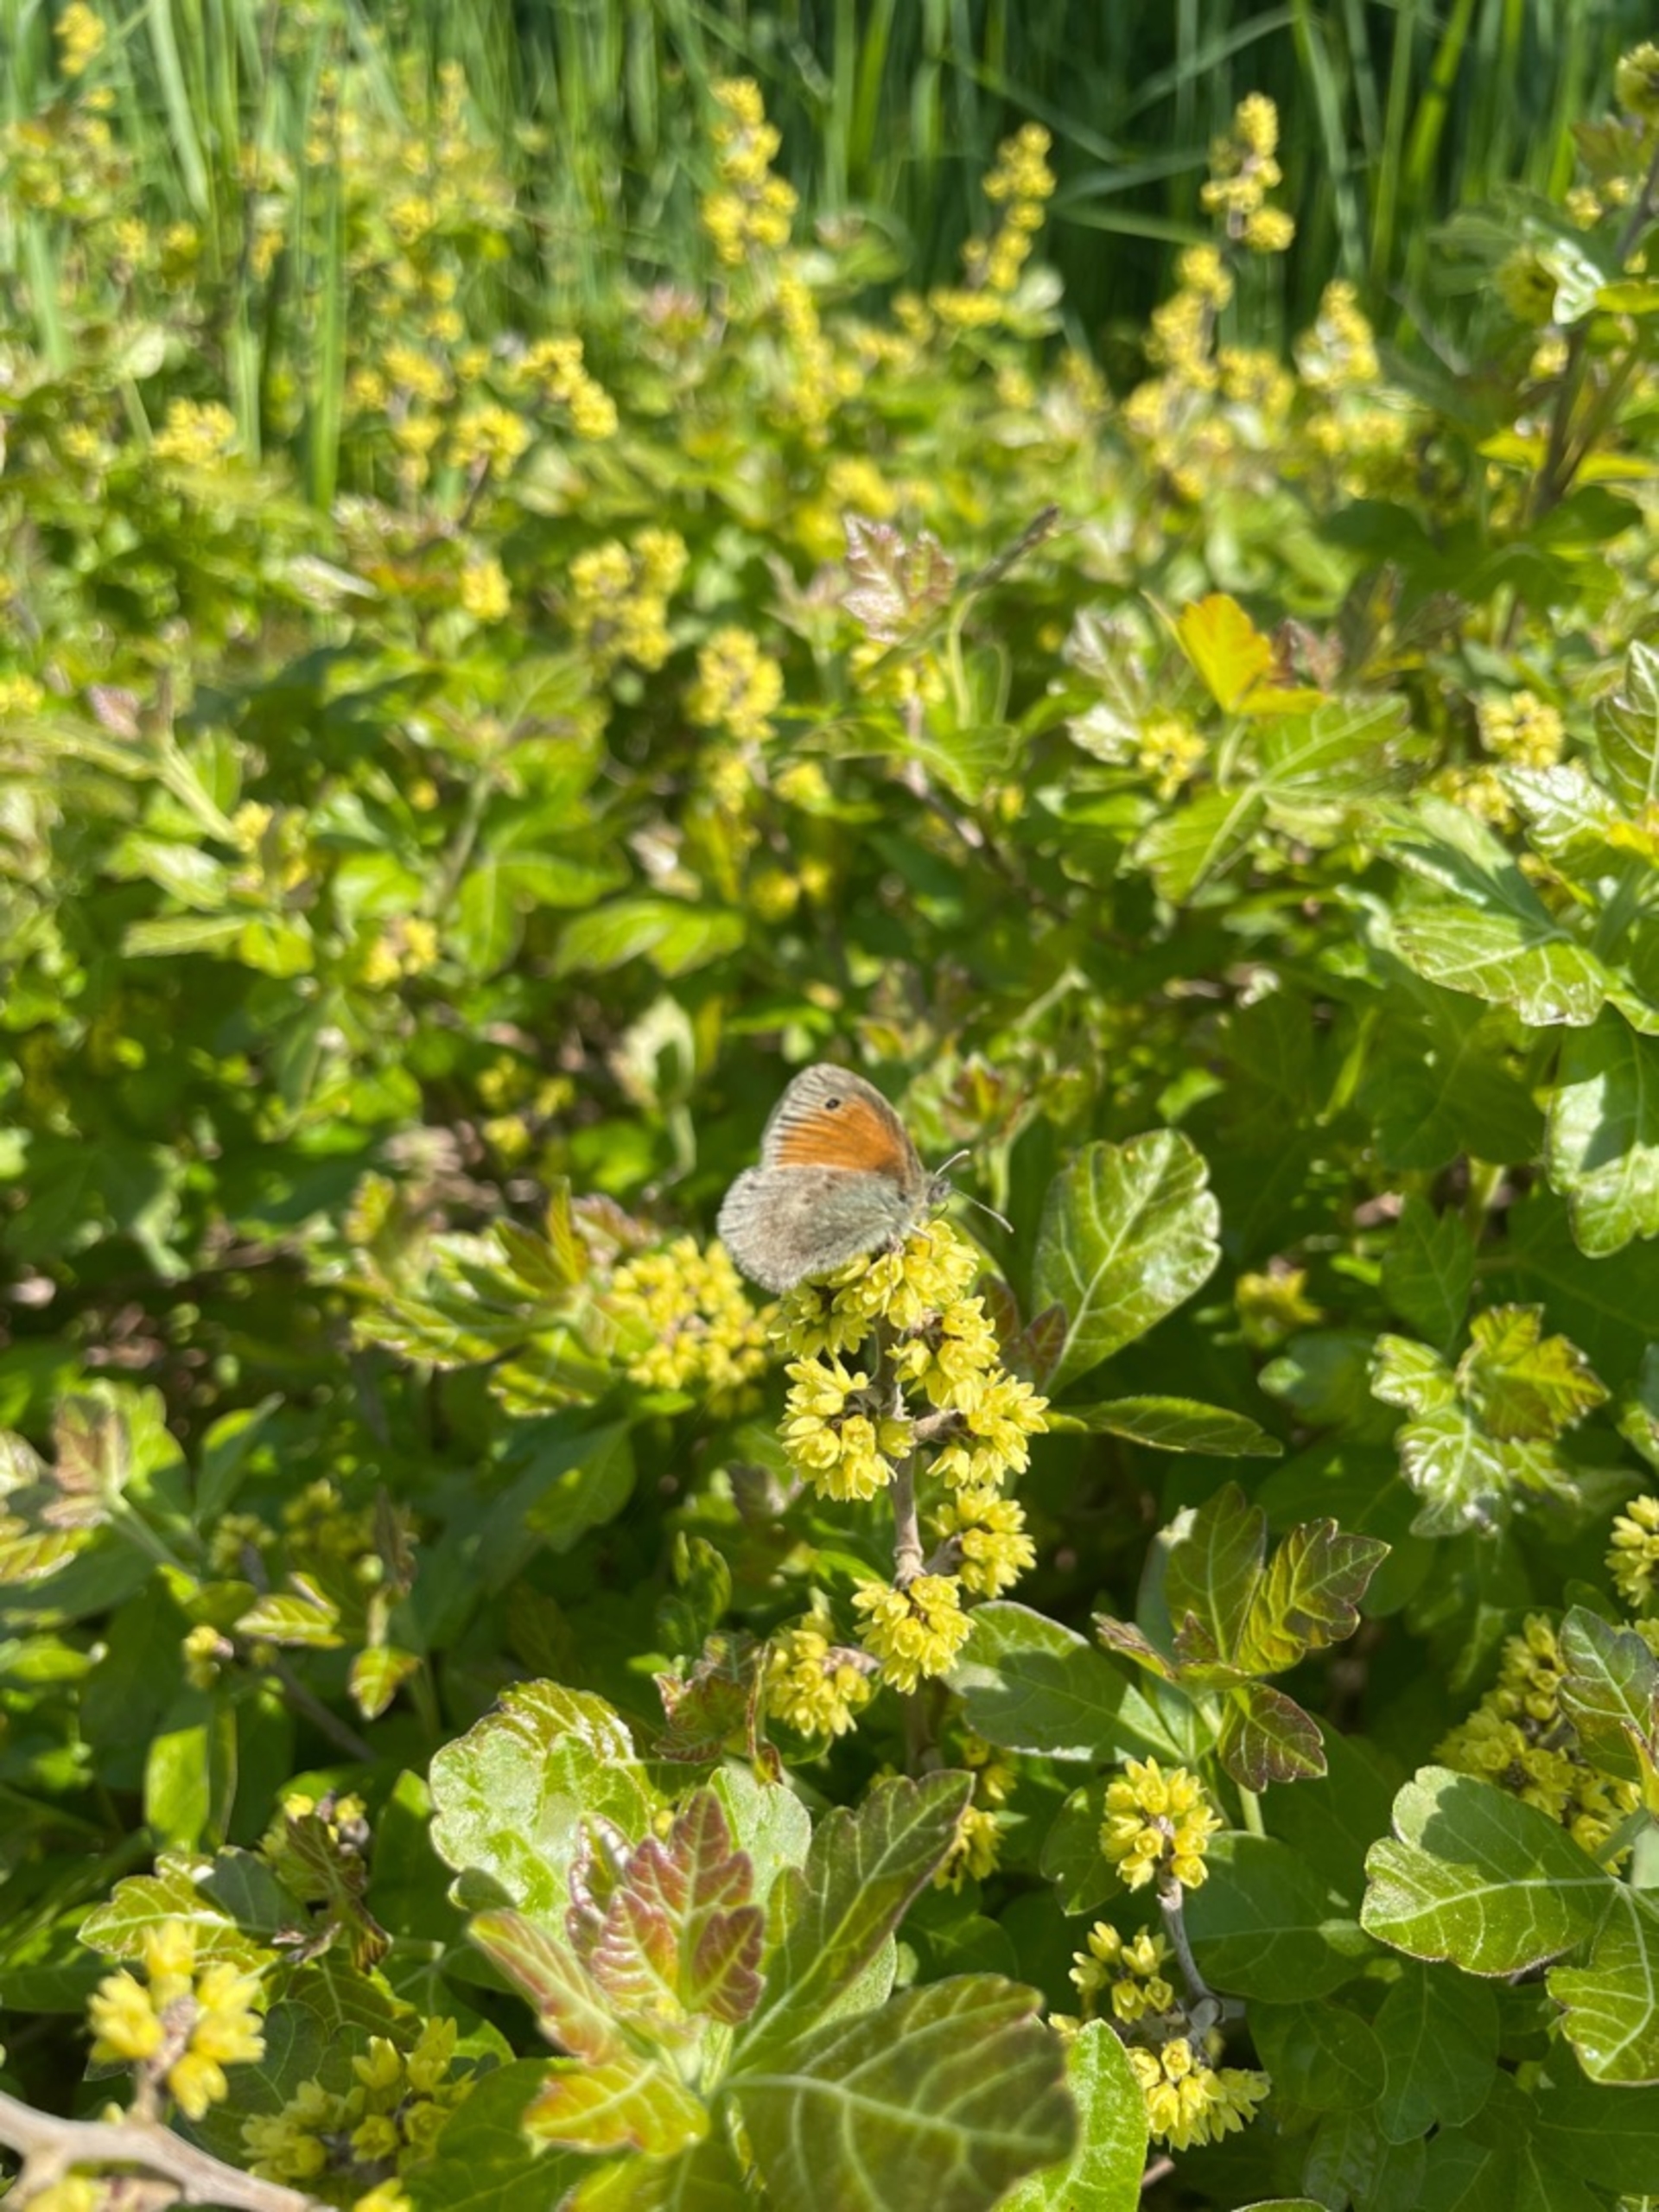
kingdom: Animalia
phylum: Arthropoda
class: Insecta
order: Lepidoptera
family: Nymphalidae
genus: Coenonympha
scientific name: Coenonympha pamphilus
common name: Okkergul randøje
